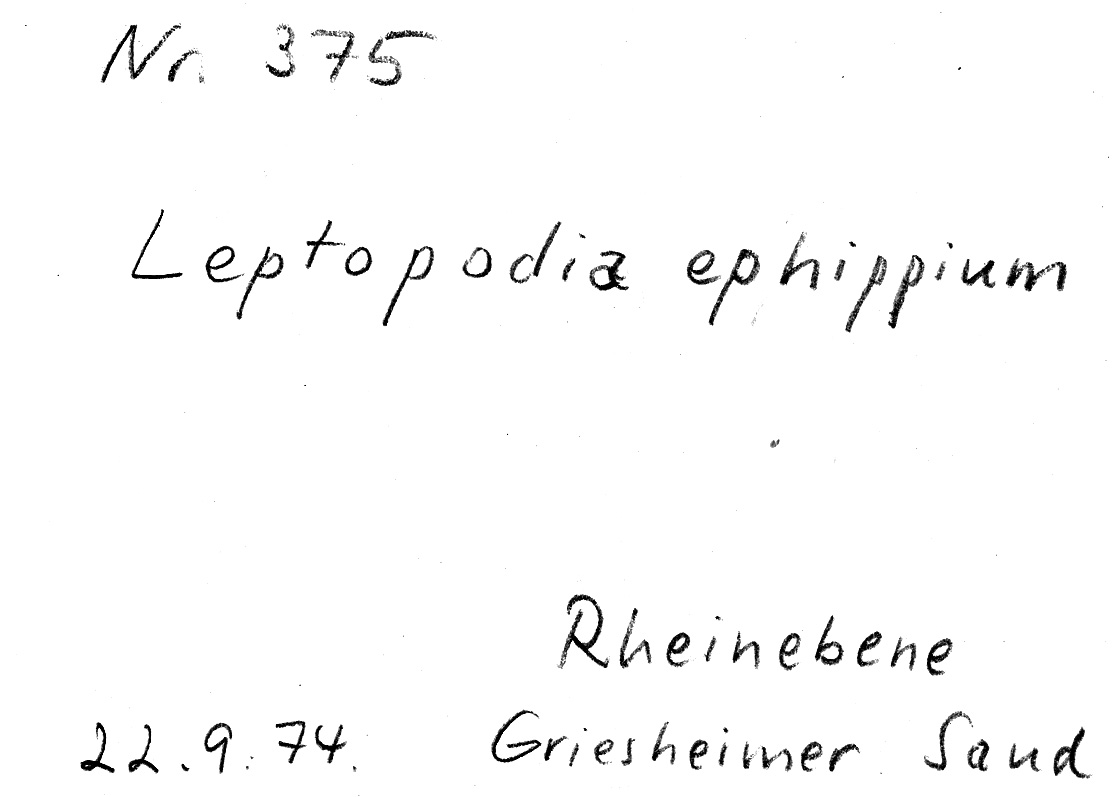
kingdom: Fungi
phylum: Ascomycota
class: Pezizomycetes
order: Pezizales
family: Helvellaceae
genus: Helvella
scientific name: Helvella ephippium
